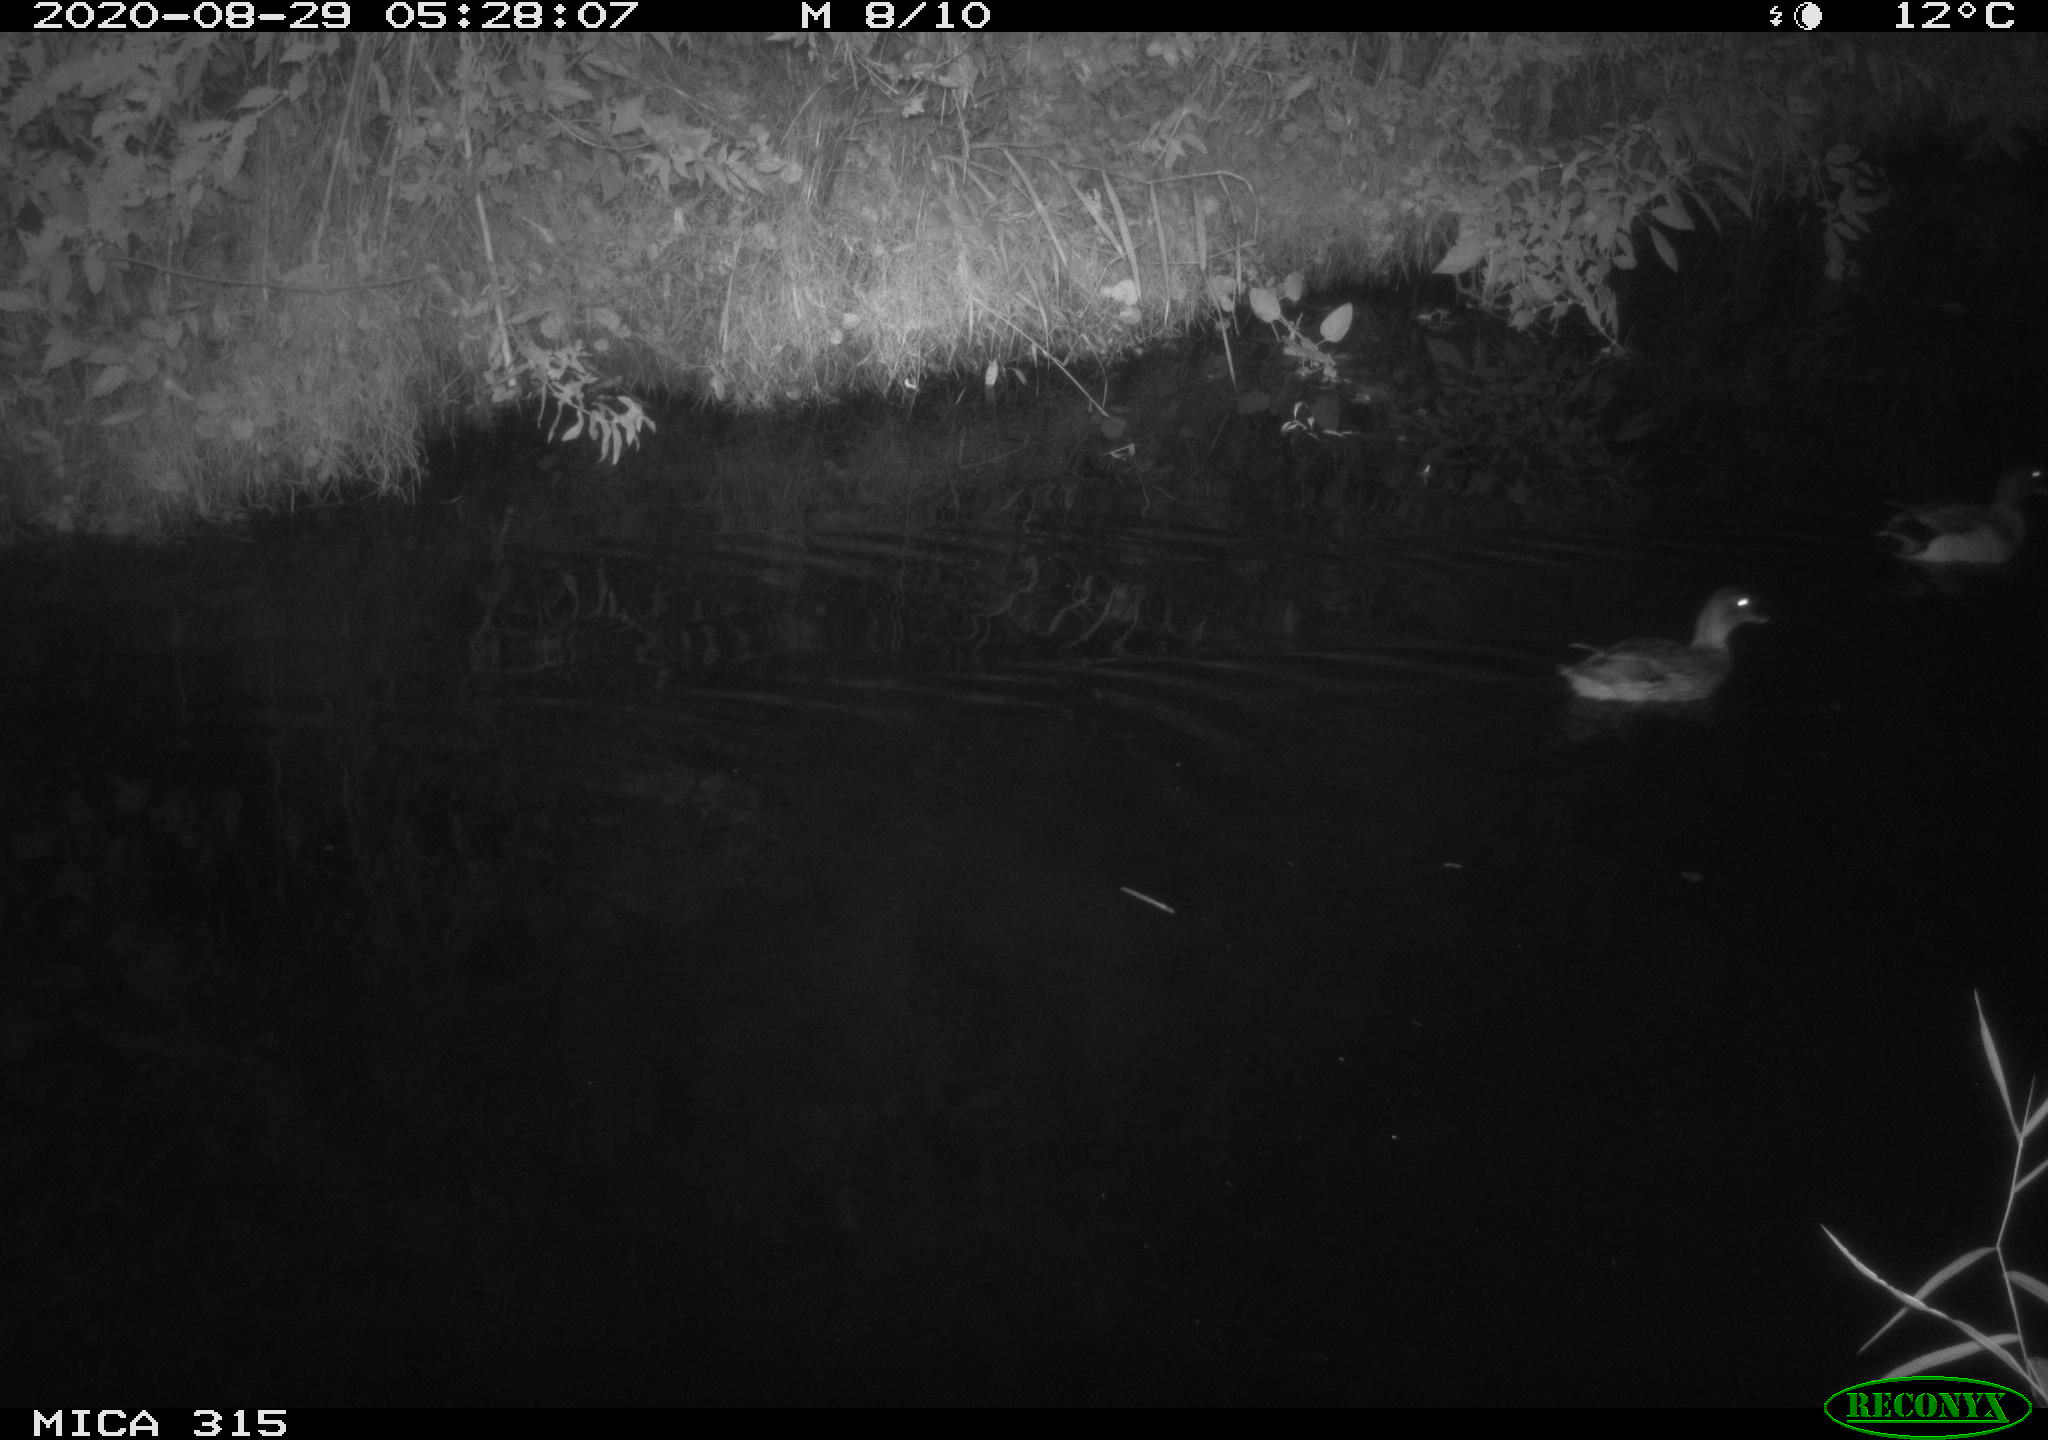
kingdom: Animalia
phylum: Chordata
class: Aves
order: Anseriformes
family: Anatidae
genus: Anas
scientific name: Anas platyrhynchos
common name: Mallard
